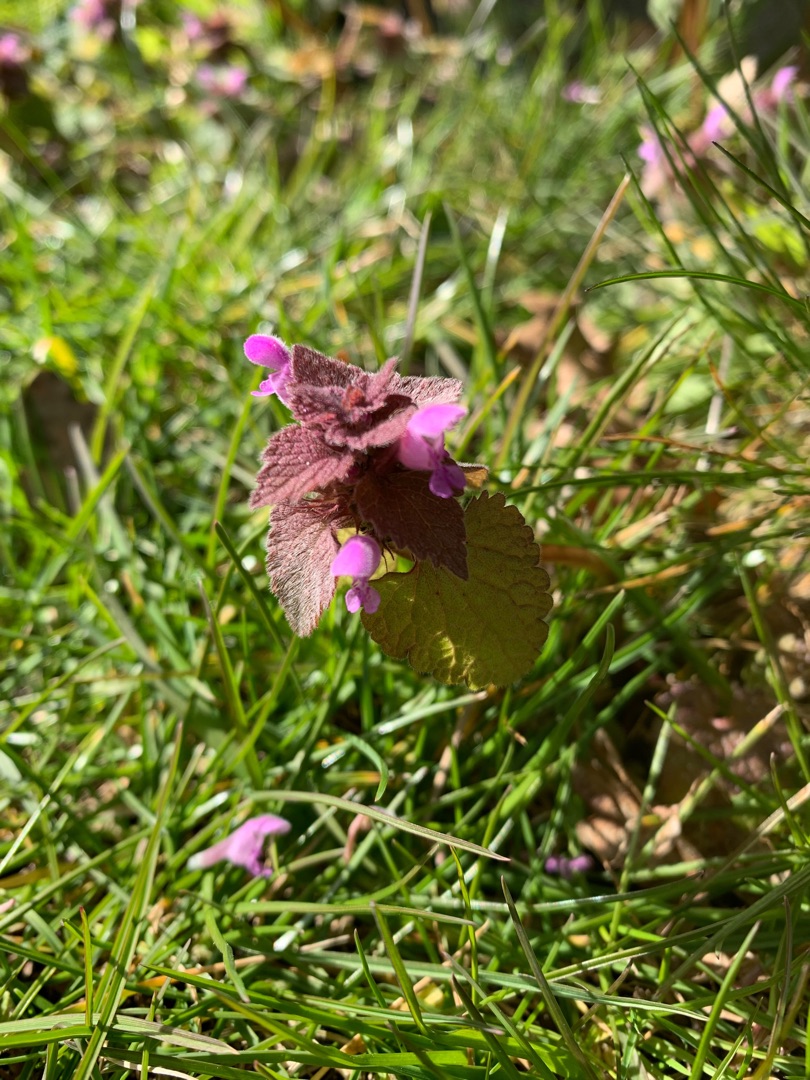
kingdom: Plantae
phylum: Tracheophyta
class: Magnoliopsida
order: Lamiales
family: Lamiaceae
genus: Lamium
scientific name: Lamium purpureum
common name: Rød tvetand
